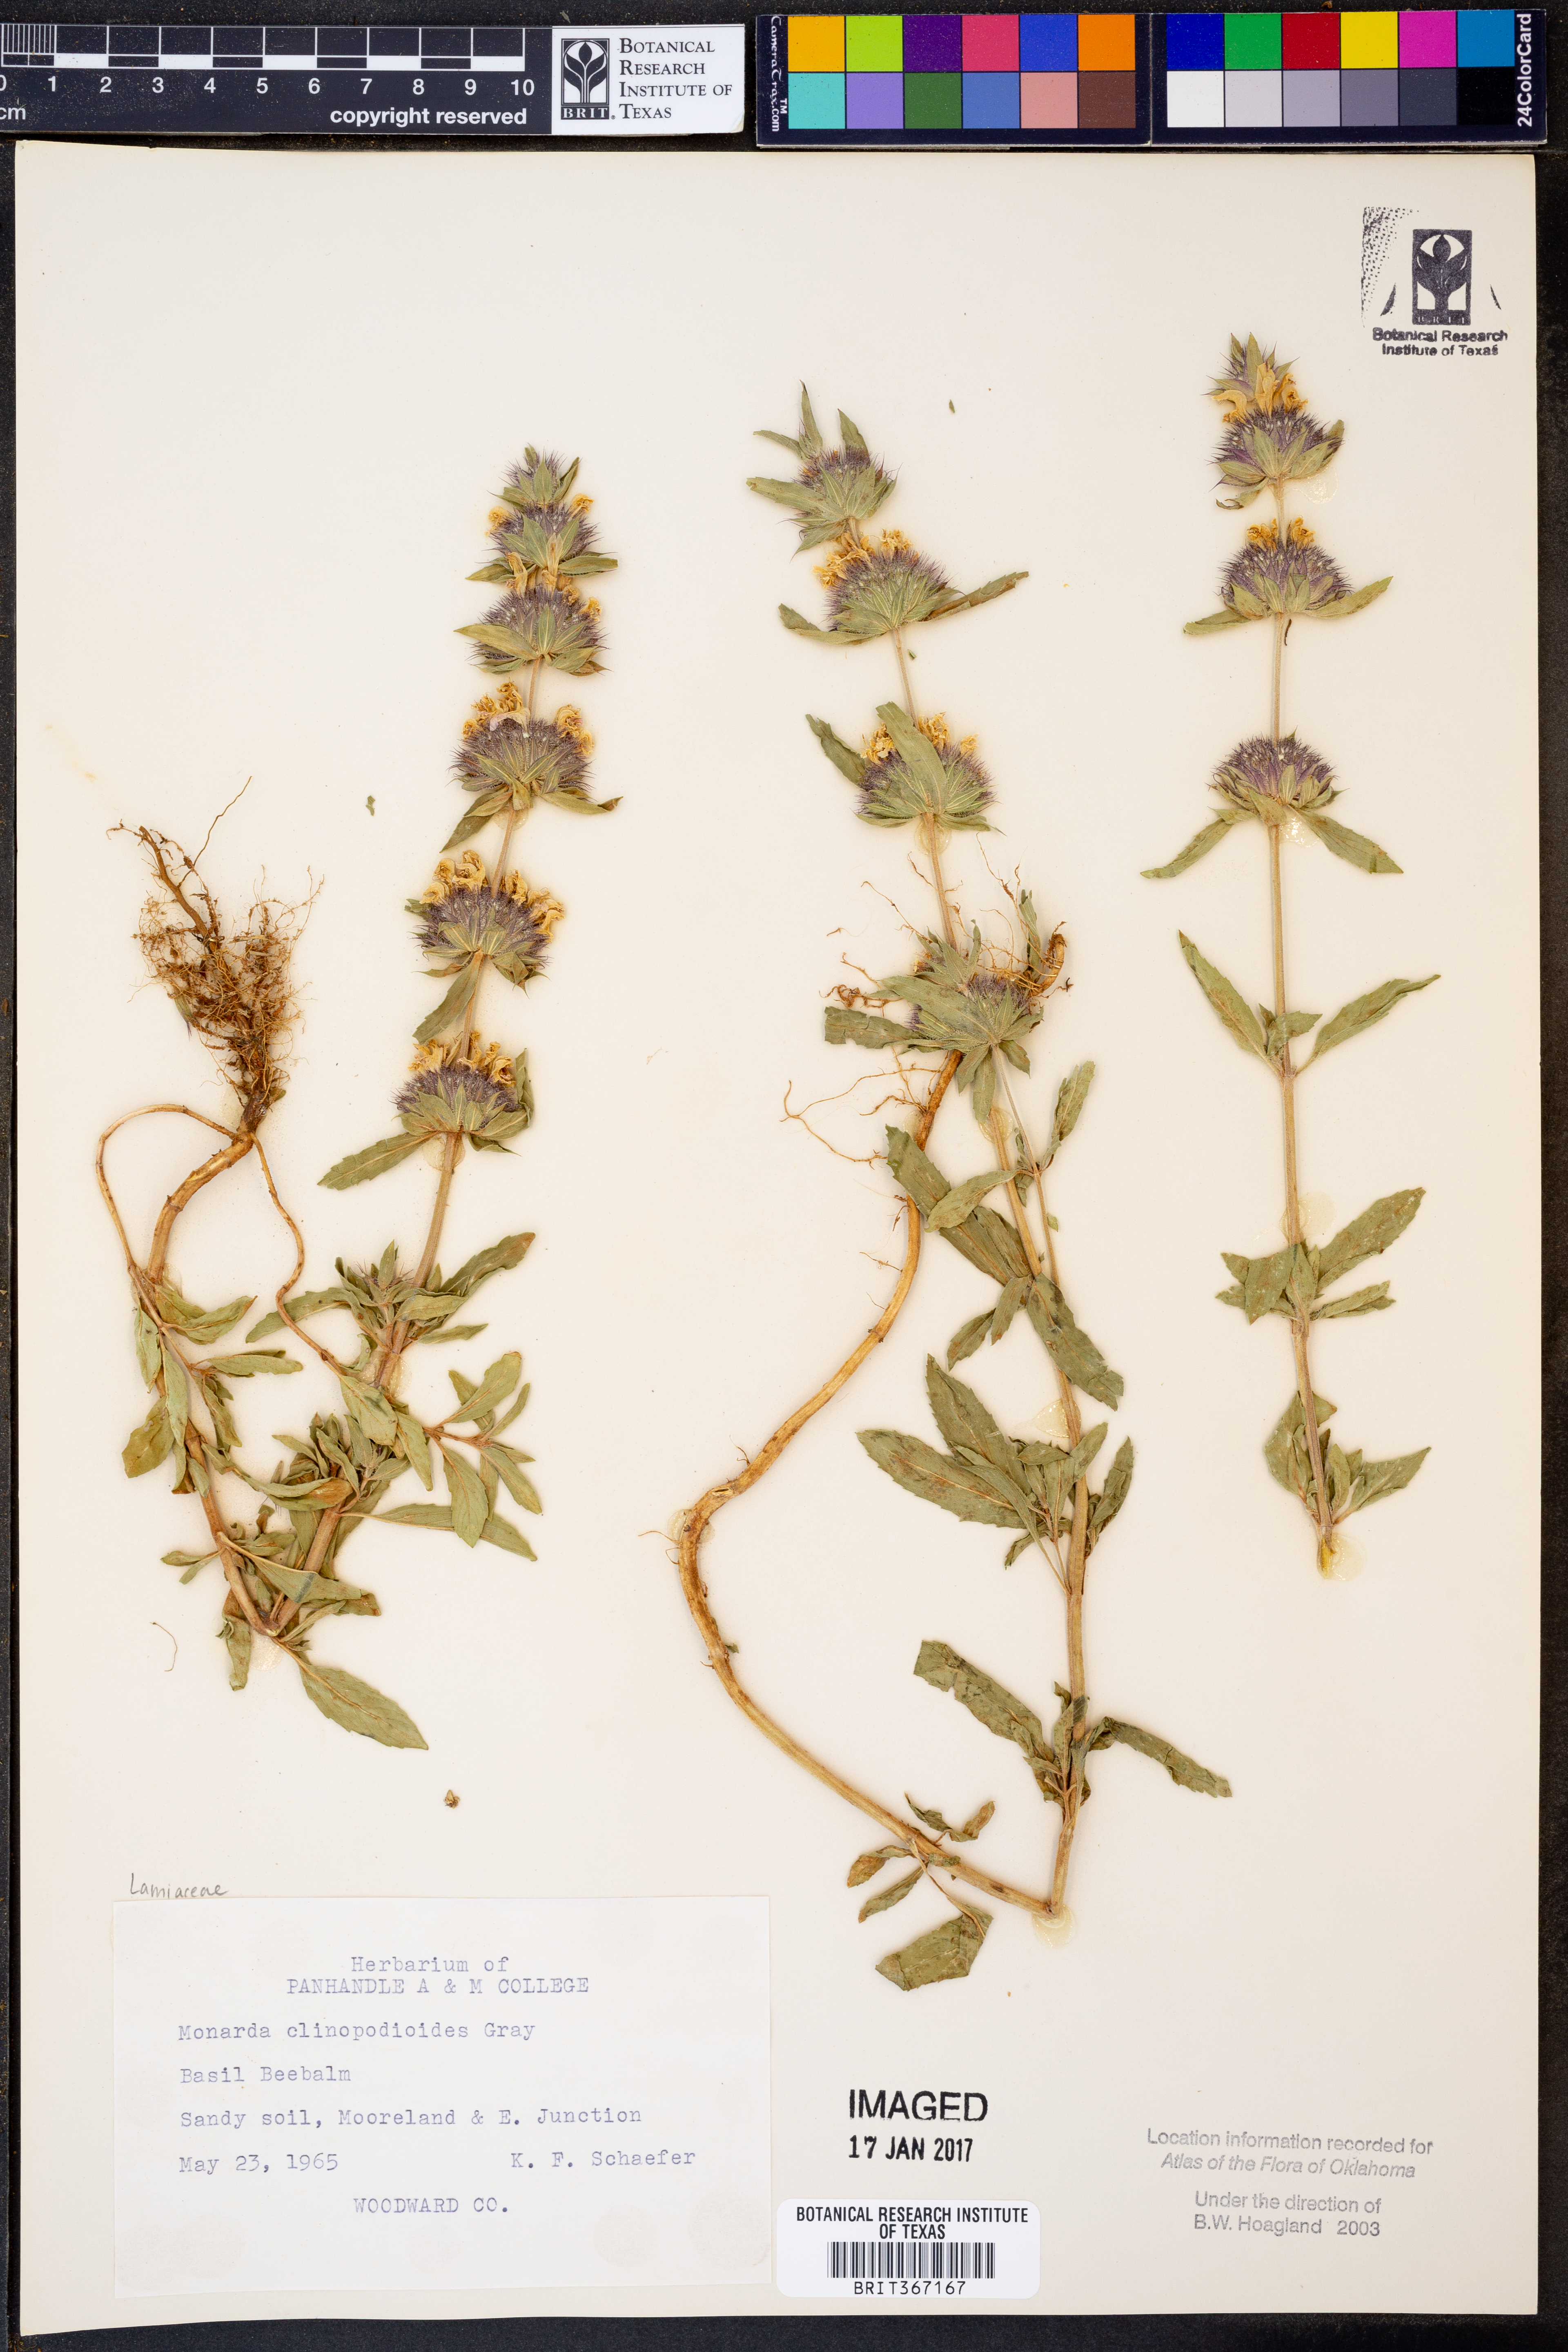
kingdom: Plantae
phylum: Tracheophyta
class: Magnoliopsida
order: Lamiales
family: Lamiaceae
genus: Monarda
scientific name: Monarda clinopodioides
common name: Basil beebalm
